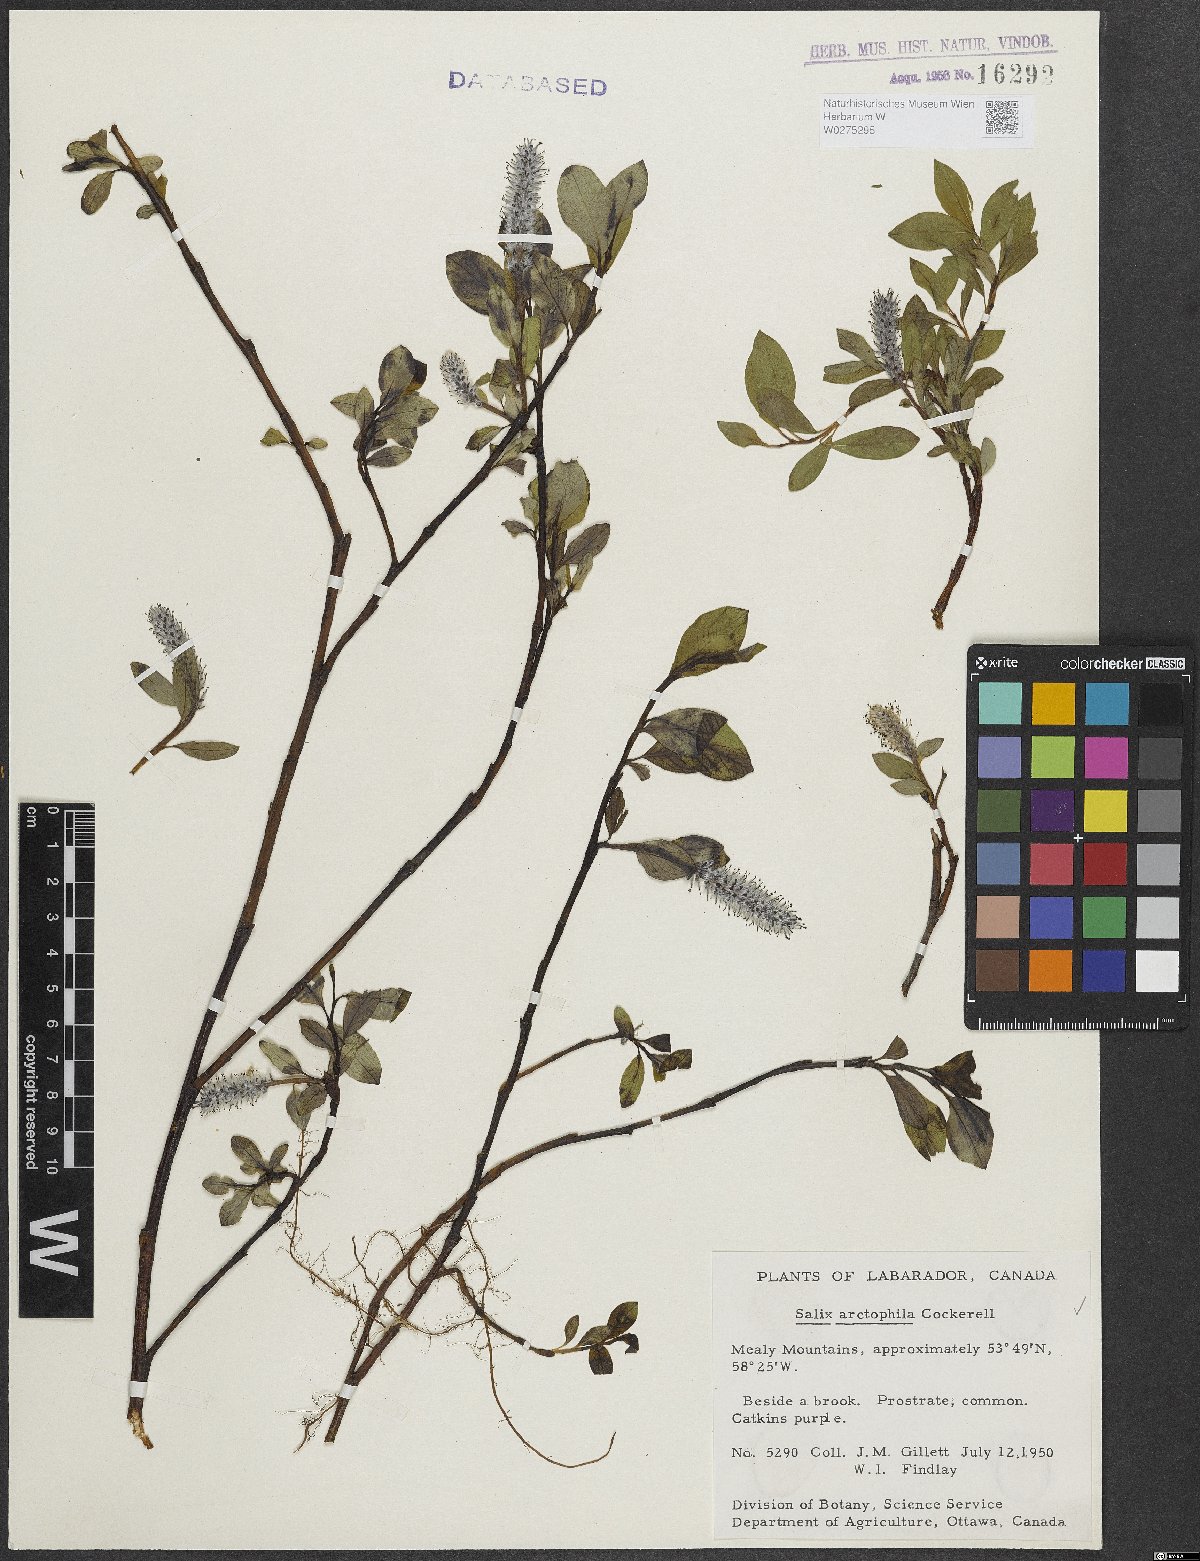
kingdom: Plantae
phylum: Tracheophyta
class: Magnoliopsida
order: Malpighiales
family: Salicaceae
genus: Salix
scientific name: Salix arctophila
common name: Greenland willow
